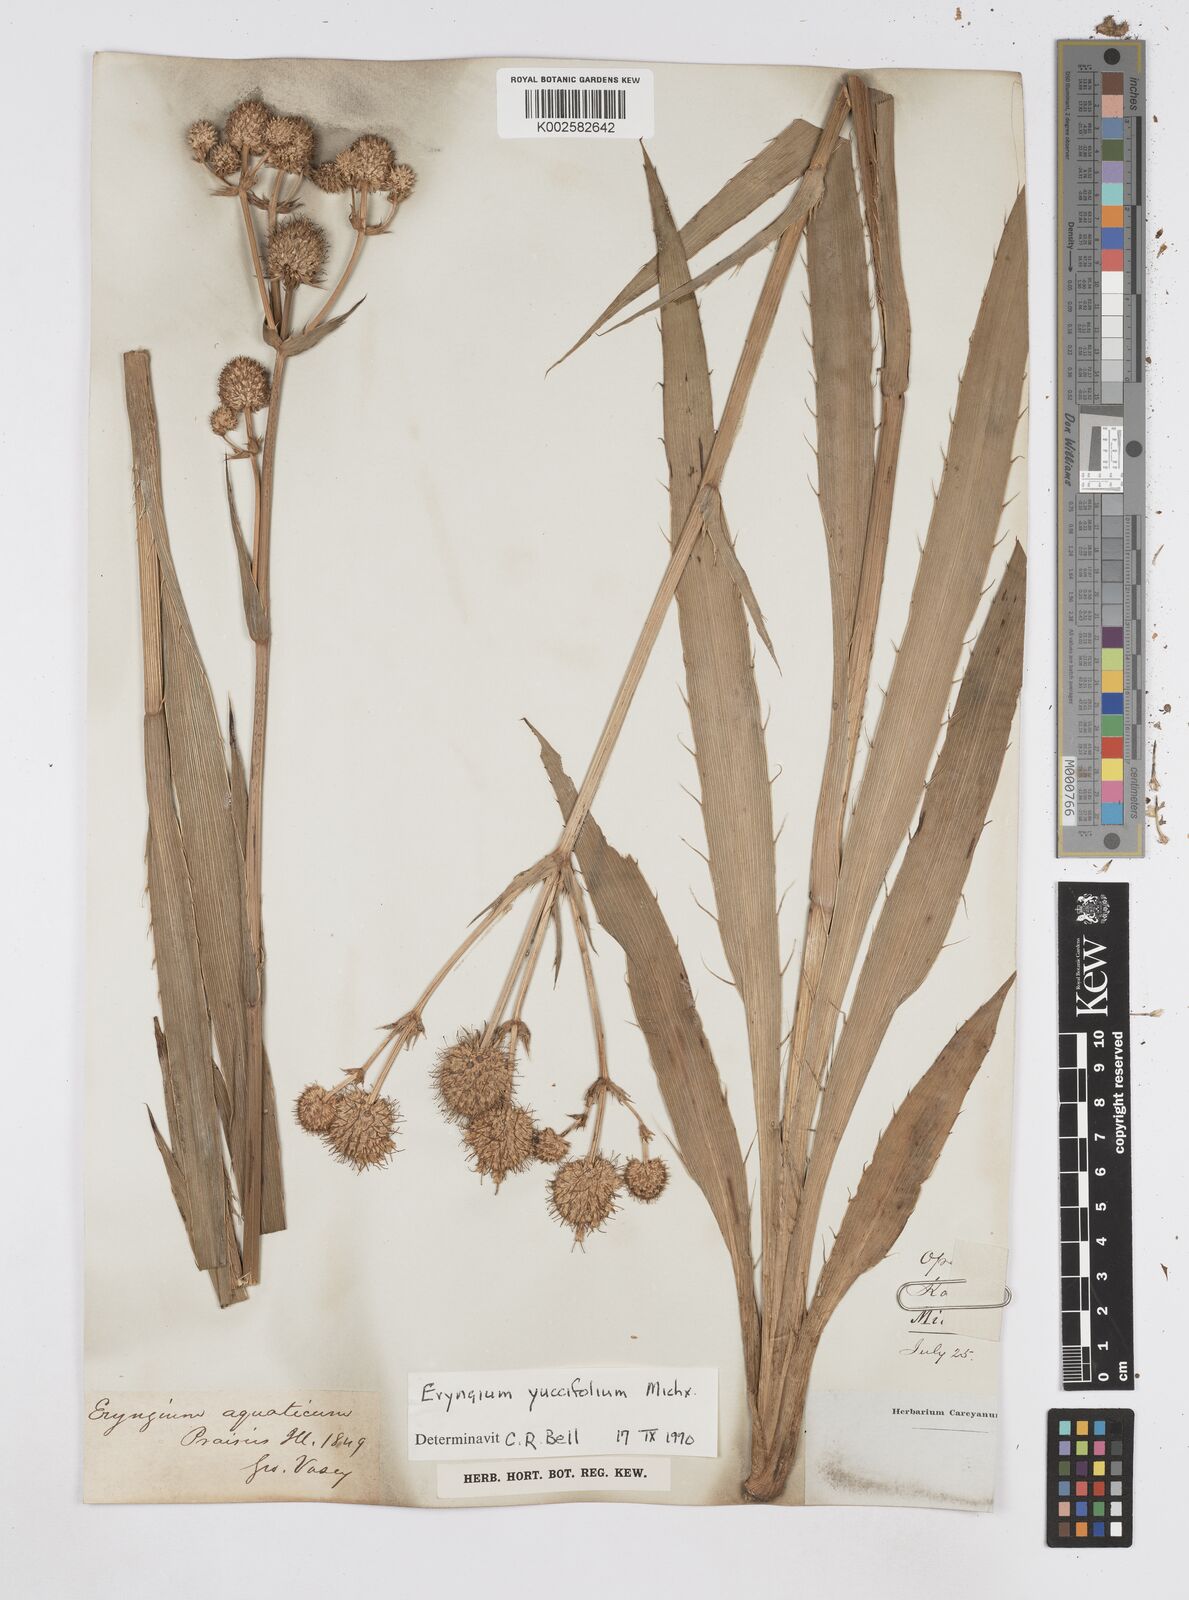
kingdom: Plantae
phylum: Tracheophyta
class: Magnoliopsida
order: Apiales
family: Apiaceae
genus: Eryngium
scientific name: Eryngium yuccifolium
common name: Button eryngo
